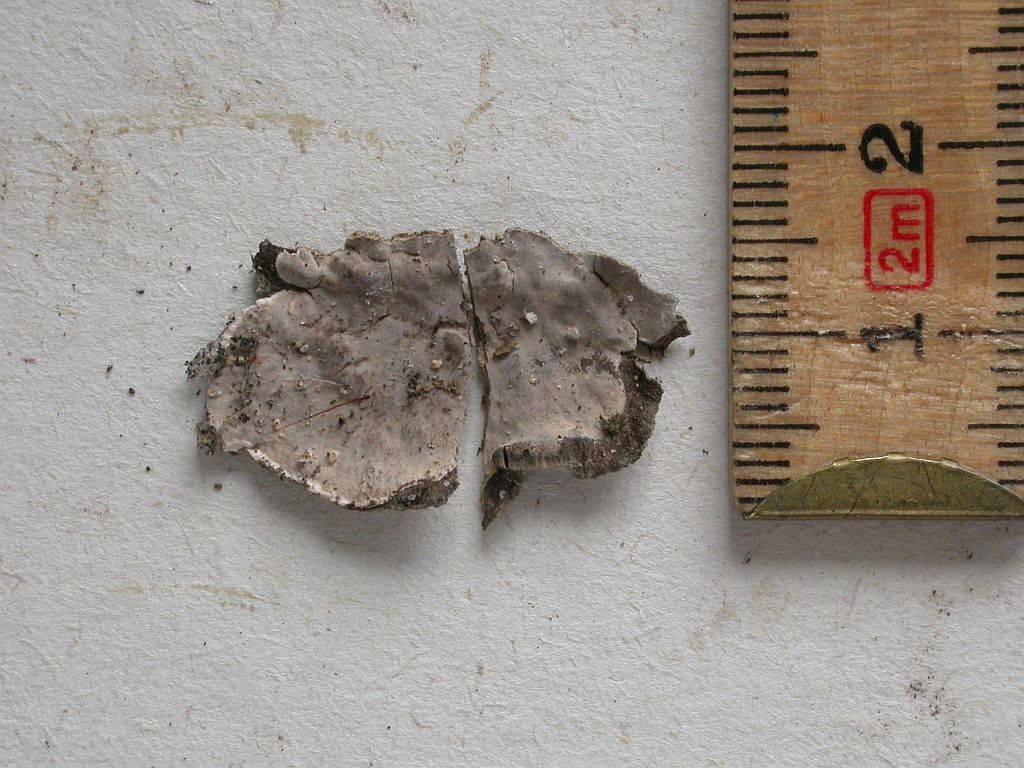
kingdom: Fungi
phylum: Basidiomycota
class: Agaricomycetes
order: Russulales
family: Stereaceae
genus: Stereum
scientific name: Stereum gausapatum
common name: tynd lædersvamp
